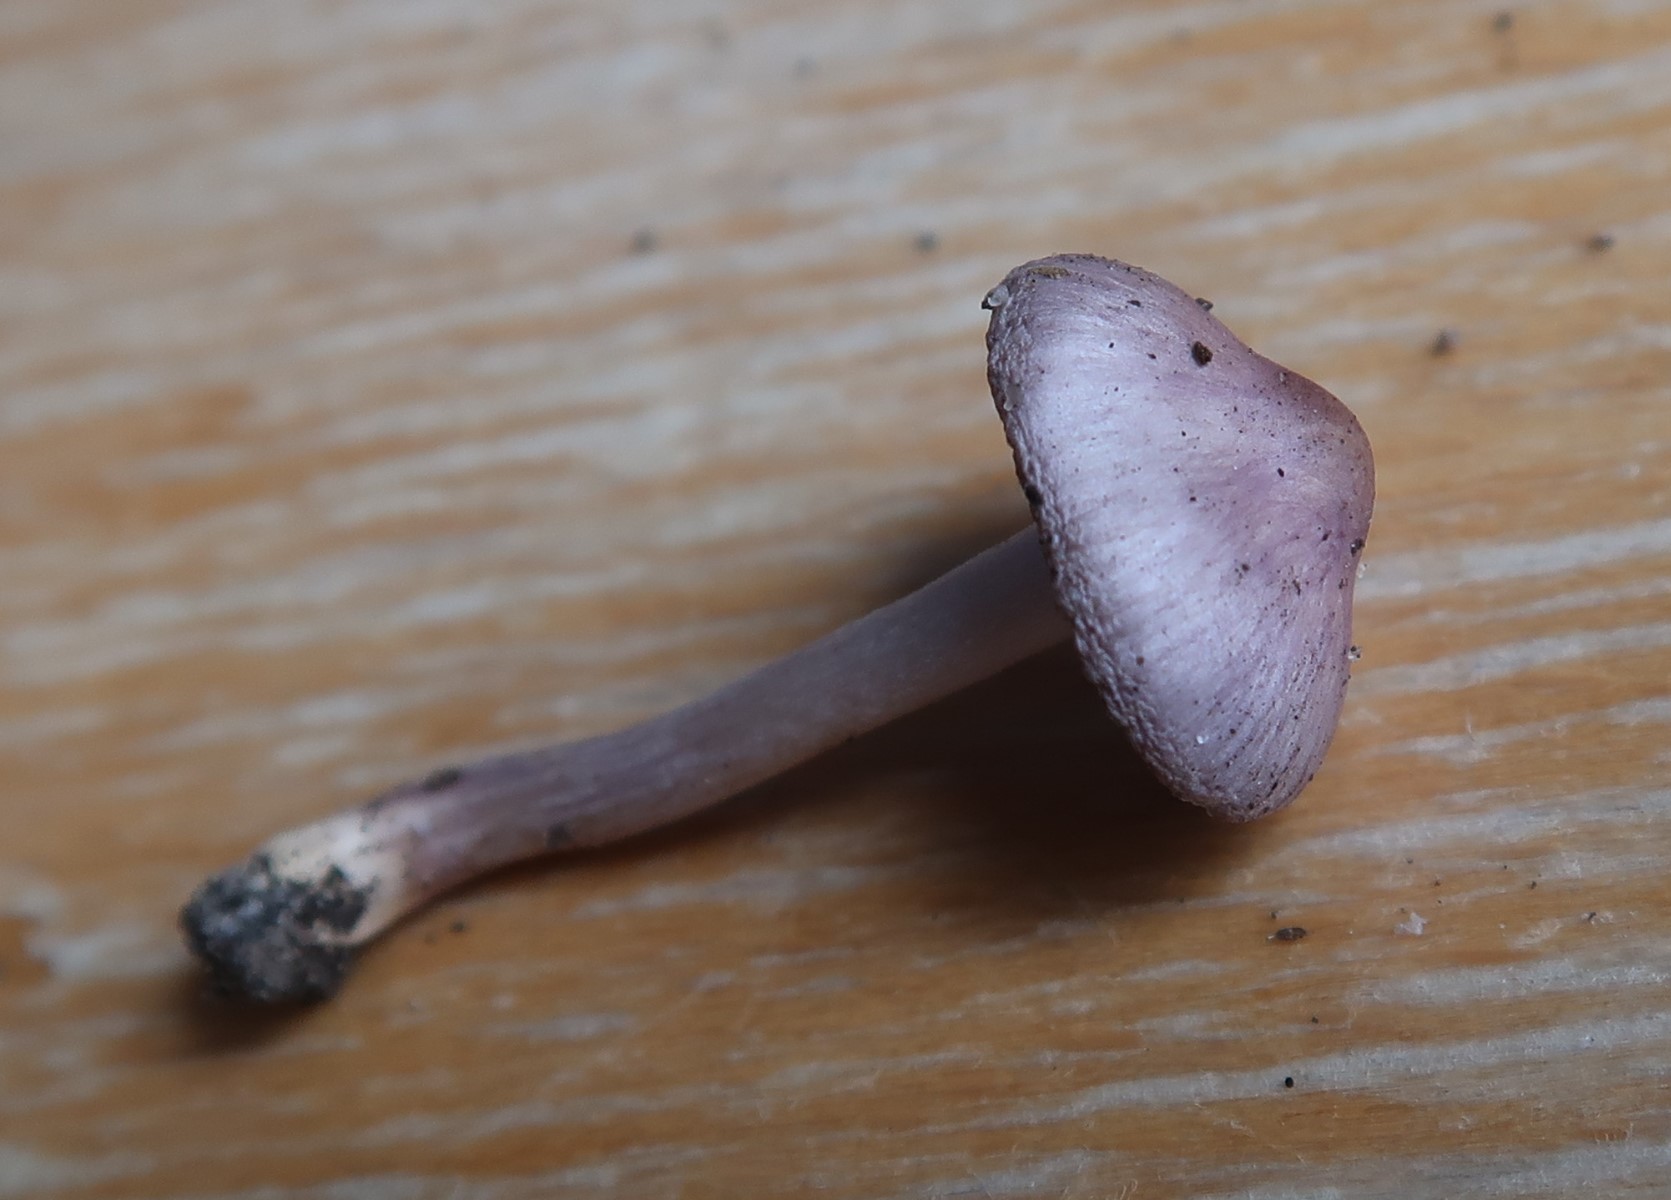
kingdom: Fungi
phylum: Basidiomycota
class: Agaricomycetes
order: Agaricales
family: Inocybaceae
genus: Inocybe
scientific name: Inocybe geophylla
